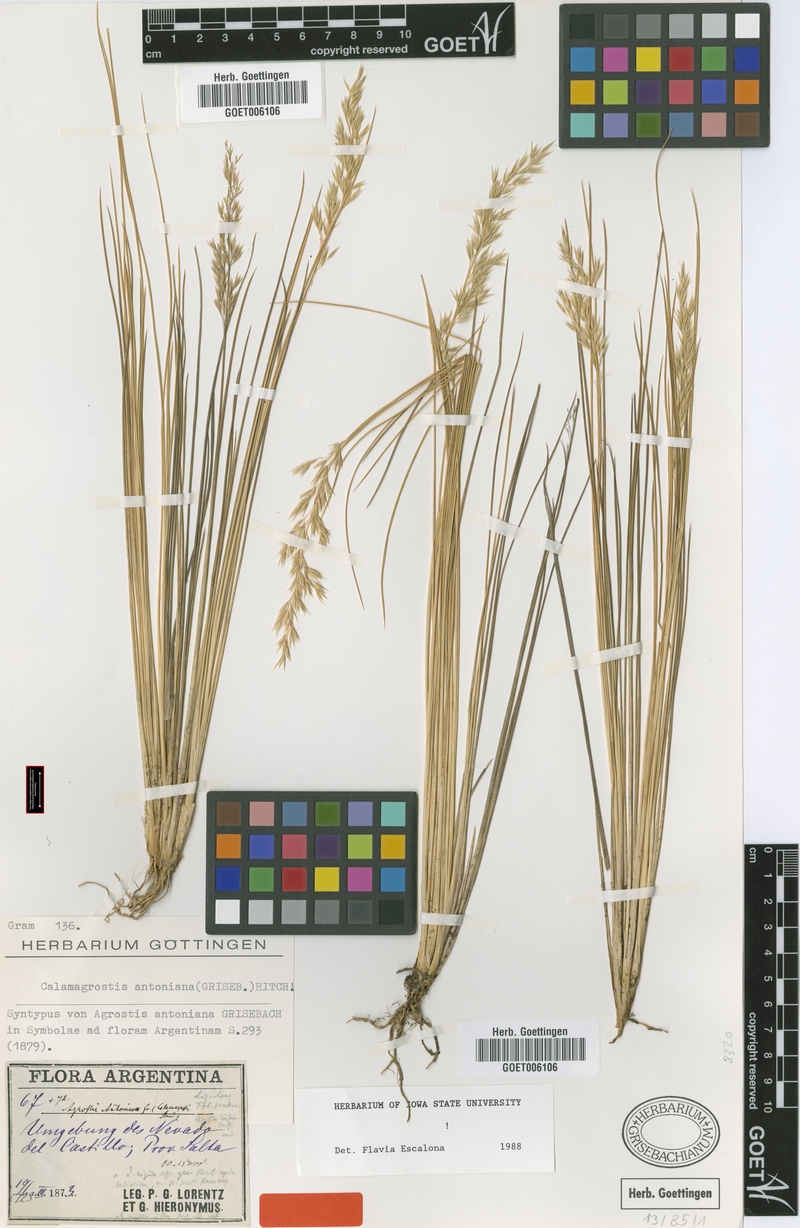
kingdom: Plantae
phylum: Tracheophyta
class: Liliopsida
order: Poales
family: Poaceae
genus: Cinnagrostis
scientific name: Cinnagrostis rigida
